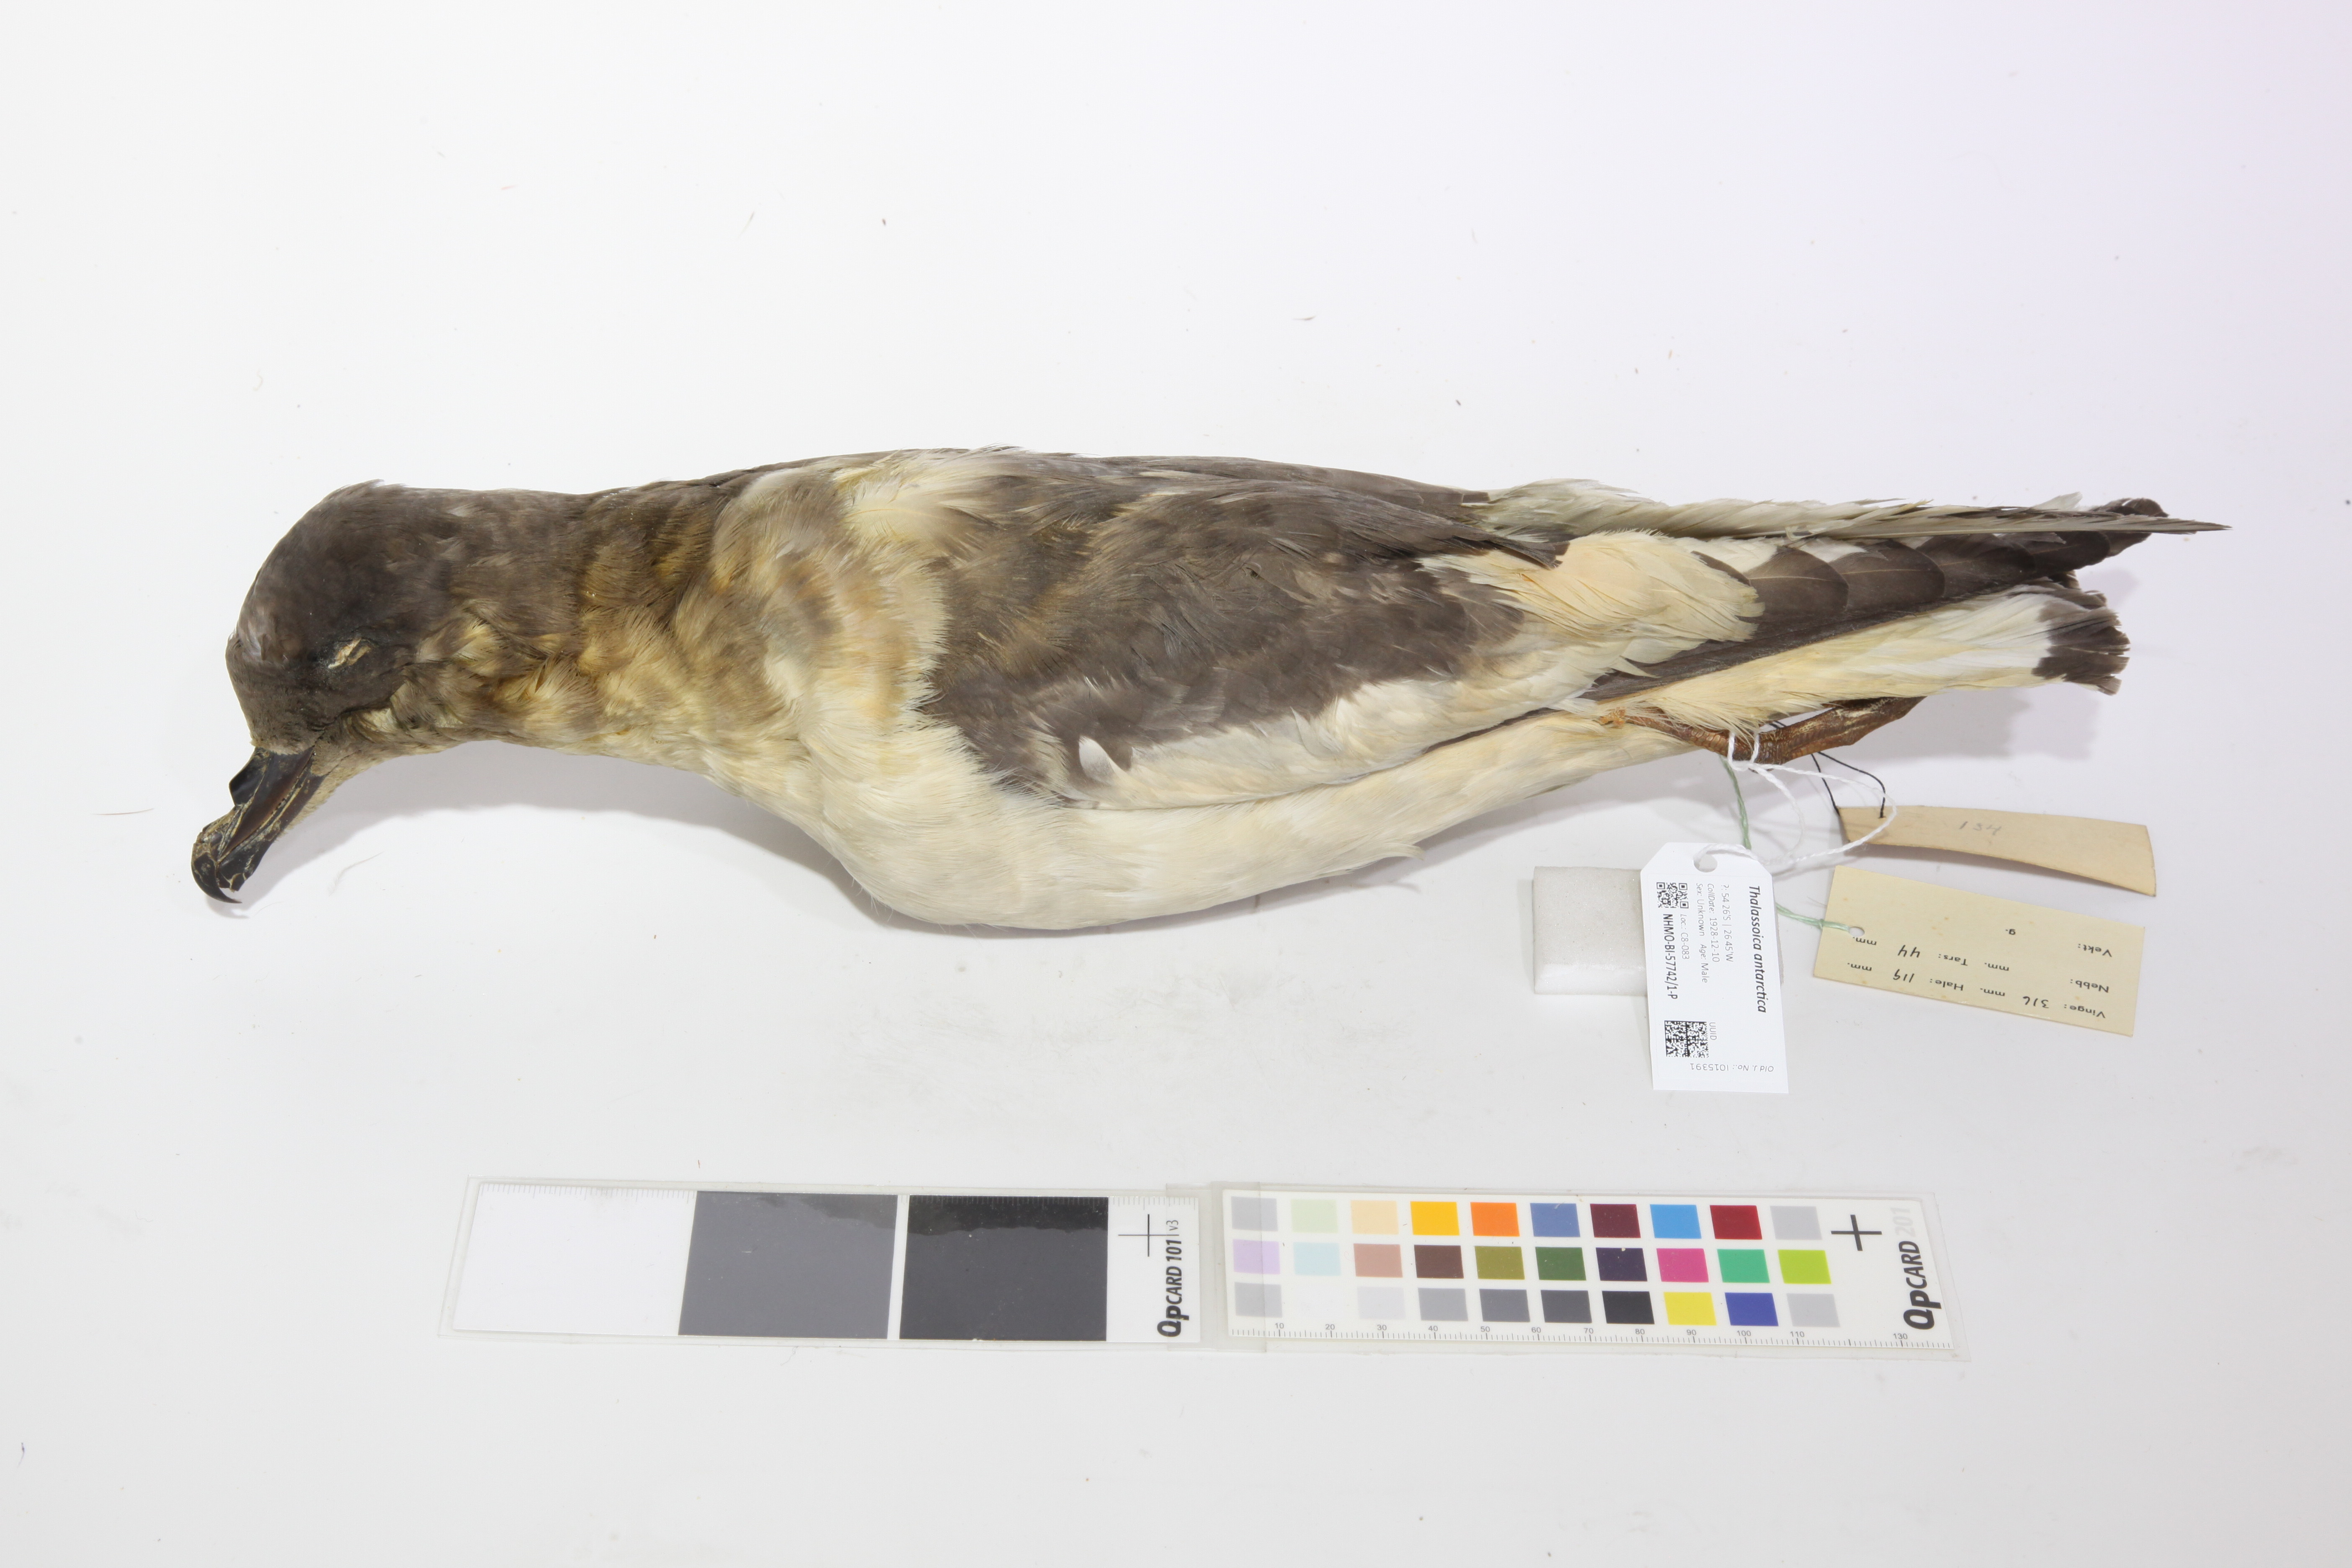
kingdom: Animalia
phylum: Chordata
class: Aves
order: Procellariiformes
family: Procellariidae
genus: Thalassoica
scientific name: Thalassoica antarctica
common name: Antarctic petrel
